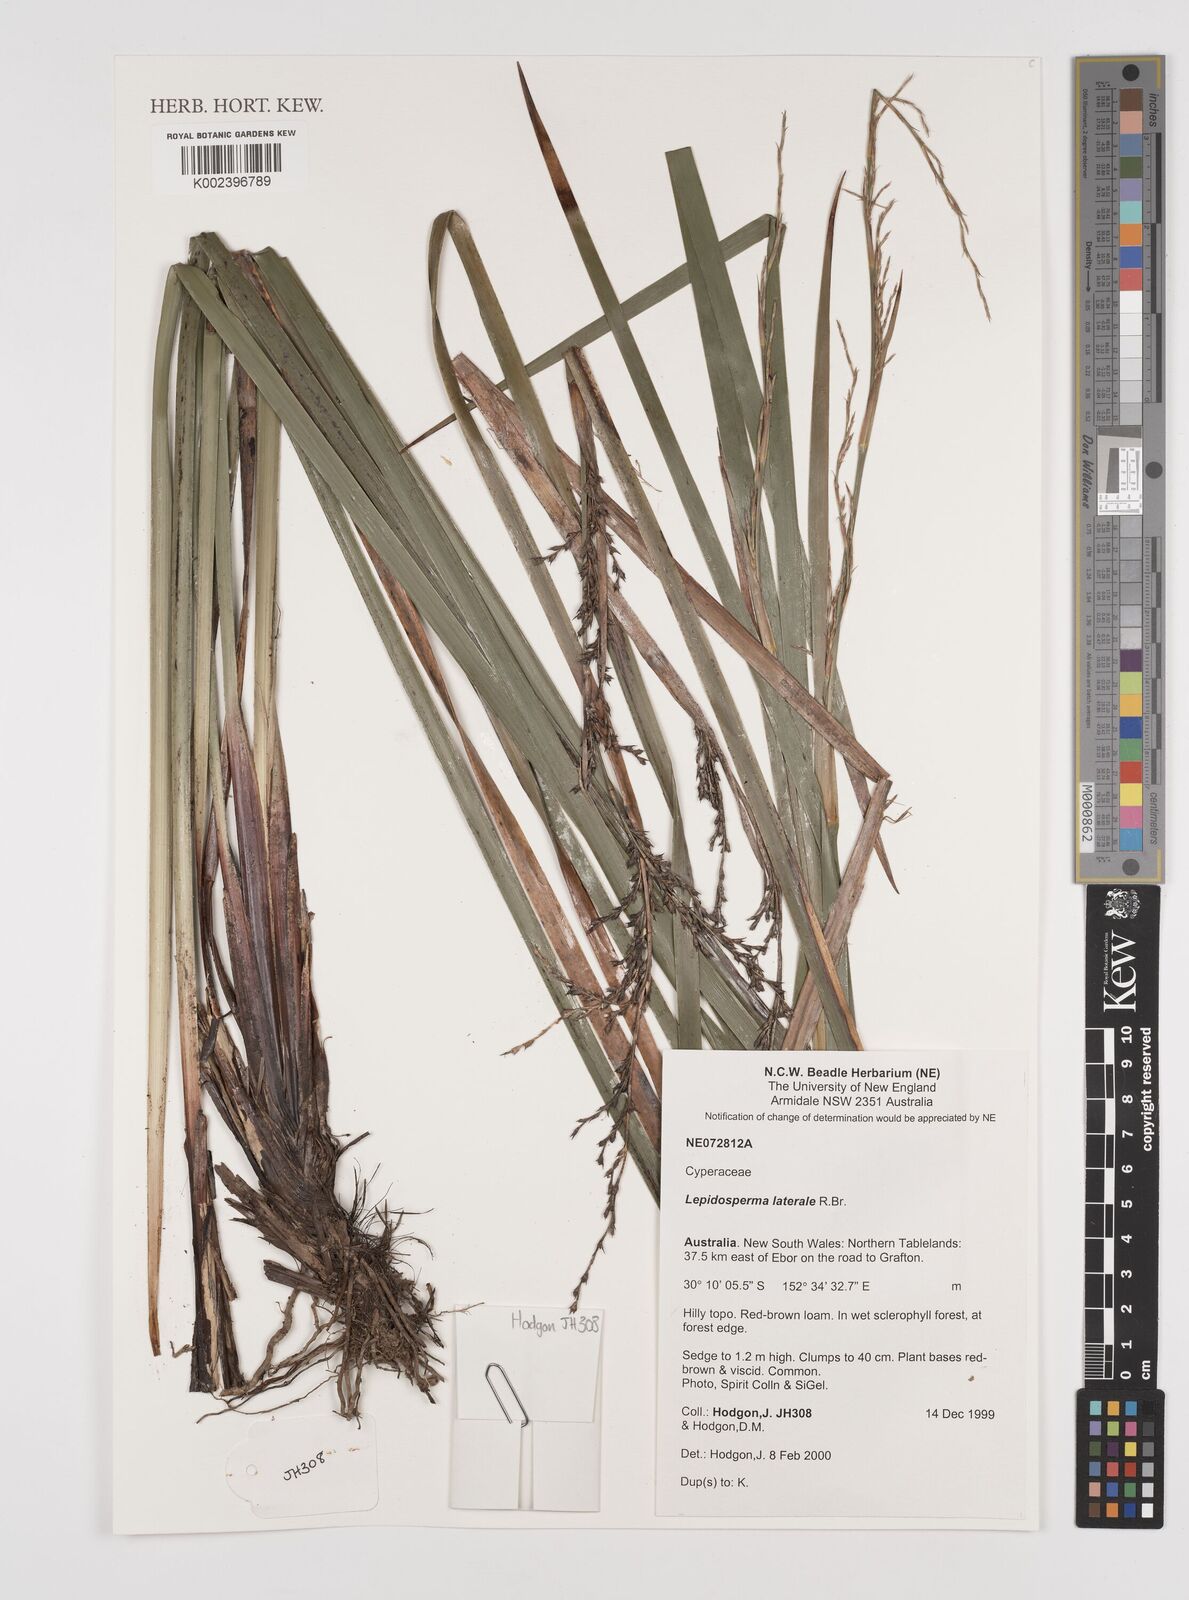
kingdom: Plantae
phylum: Tracheophyta
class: Liliopsida
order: Poales
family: Cyperaceae
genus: Lepidosperma
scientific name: Lepidosperma laterale
